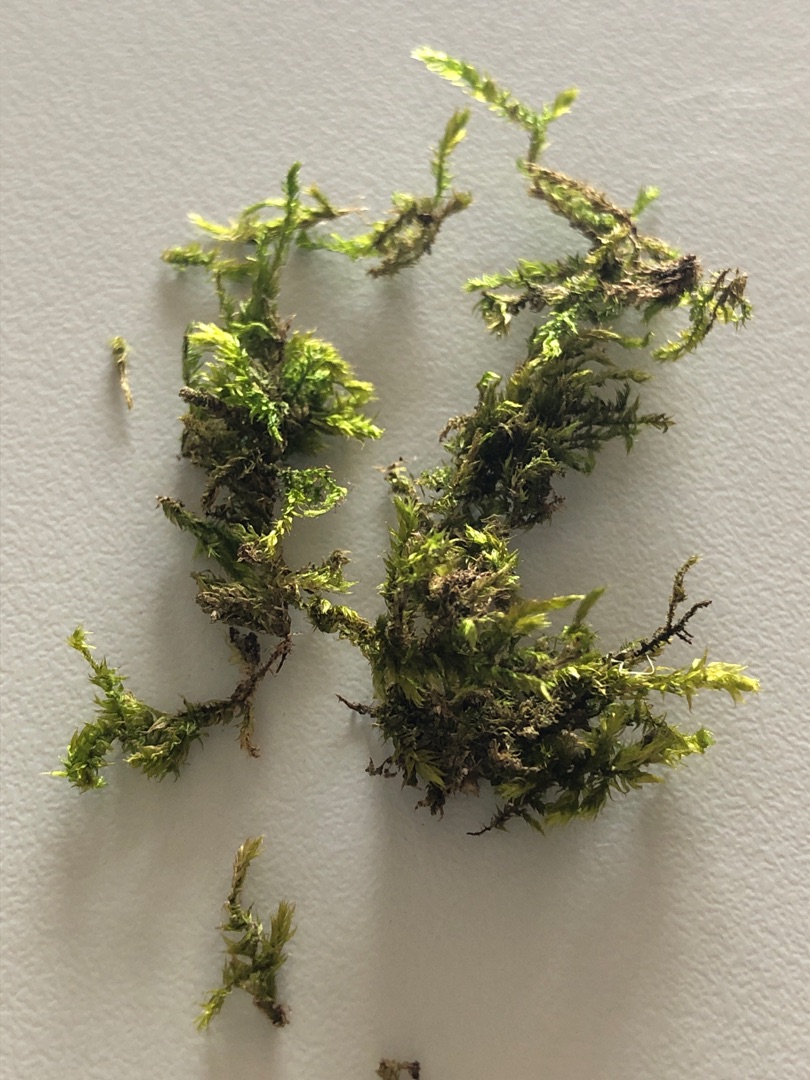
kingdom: Plantae
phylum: Bryophyta
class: Bryopsida
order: Hypnales
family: Brachytheciaceae
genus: Brachythecium
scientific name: Brachythecium rutabulum
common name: Almindelig kortkapsel
